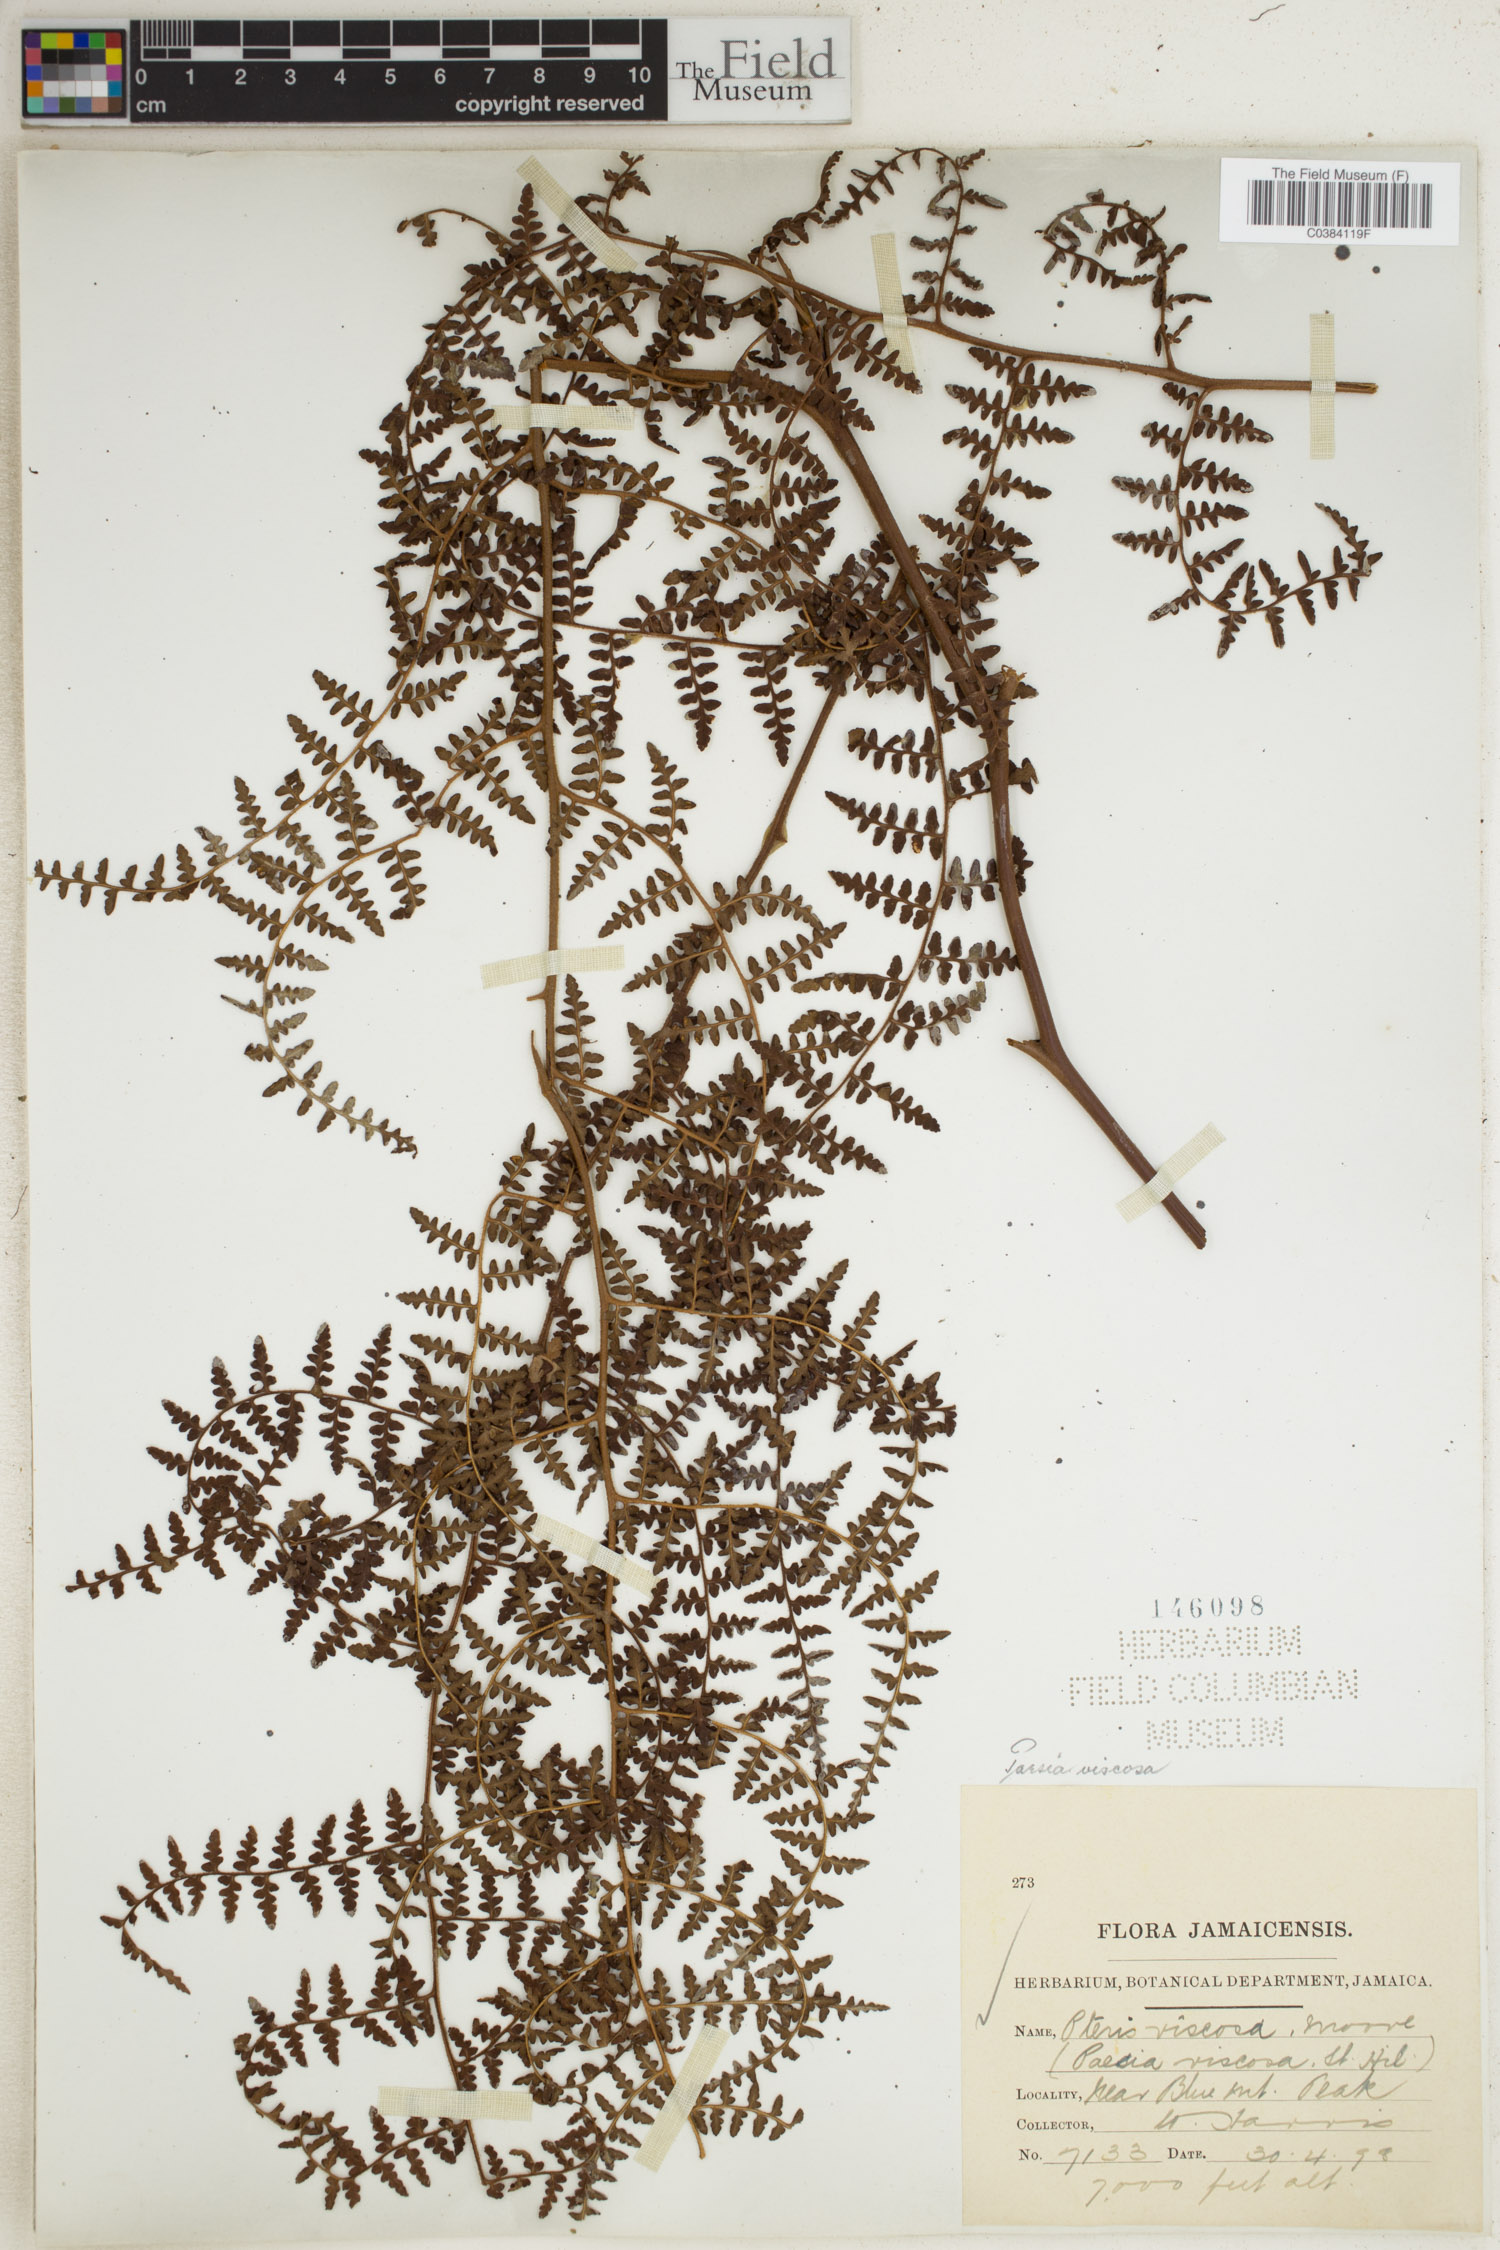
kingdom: Plantae
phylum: Tracheophyta
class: Polypodiopsida
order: Polypodiales
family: Dennstaedtiaceae
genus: Paesia
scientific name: Paesia glandulosa
